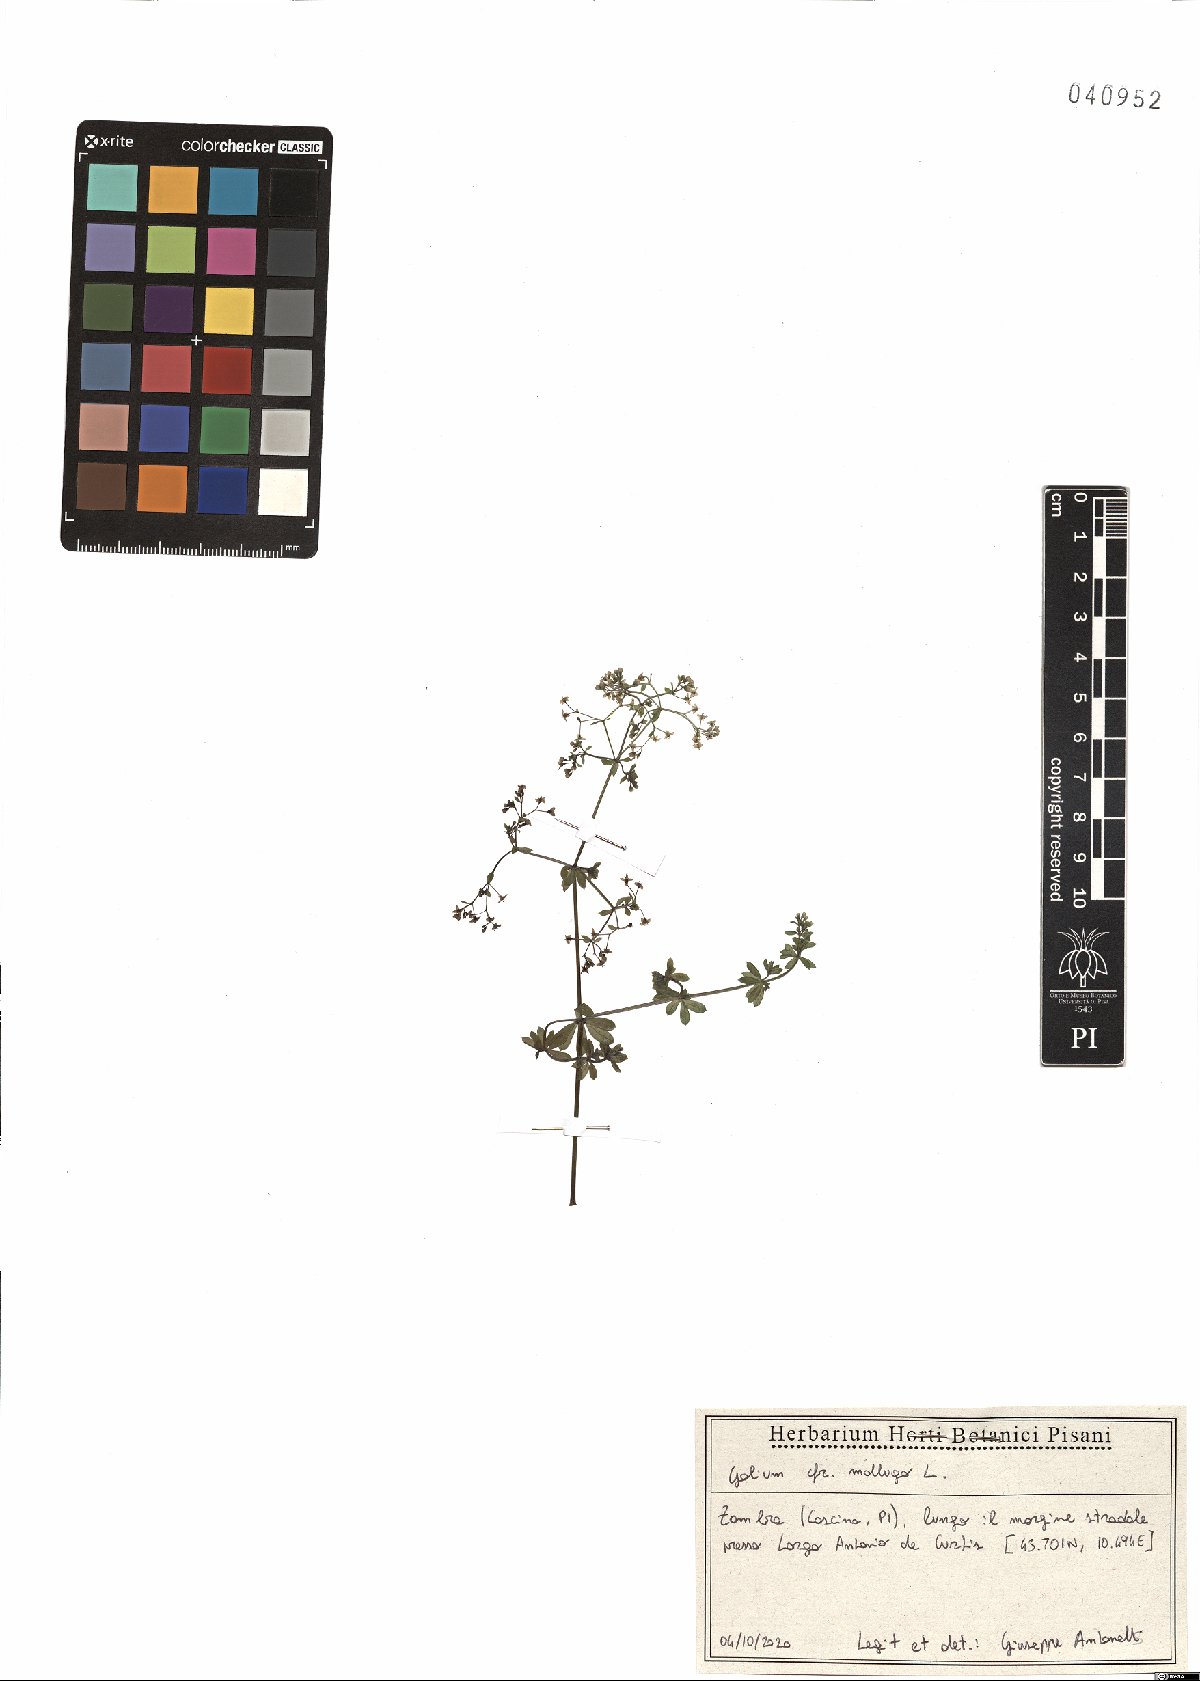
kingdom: Plantae
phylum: Tracheophyta
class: Magnoliopsida
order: Gentianales
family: Rubiaceae
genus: Galium
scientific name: Galium mollugo
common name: Hedge bedstraw
